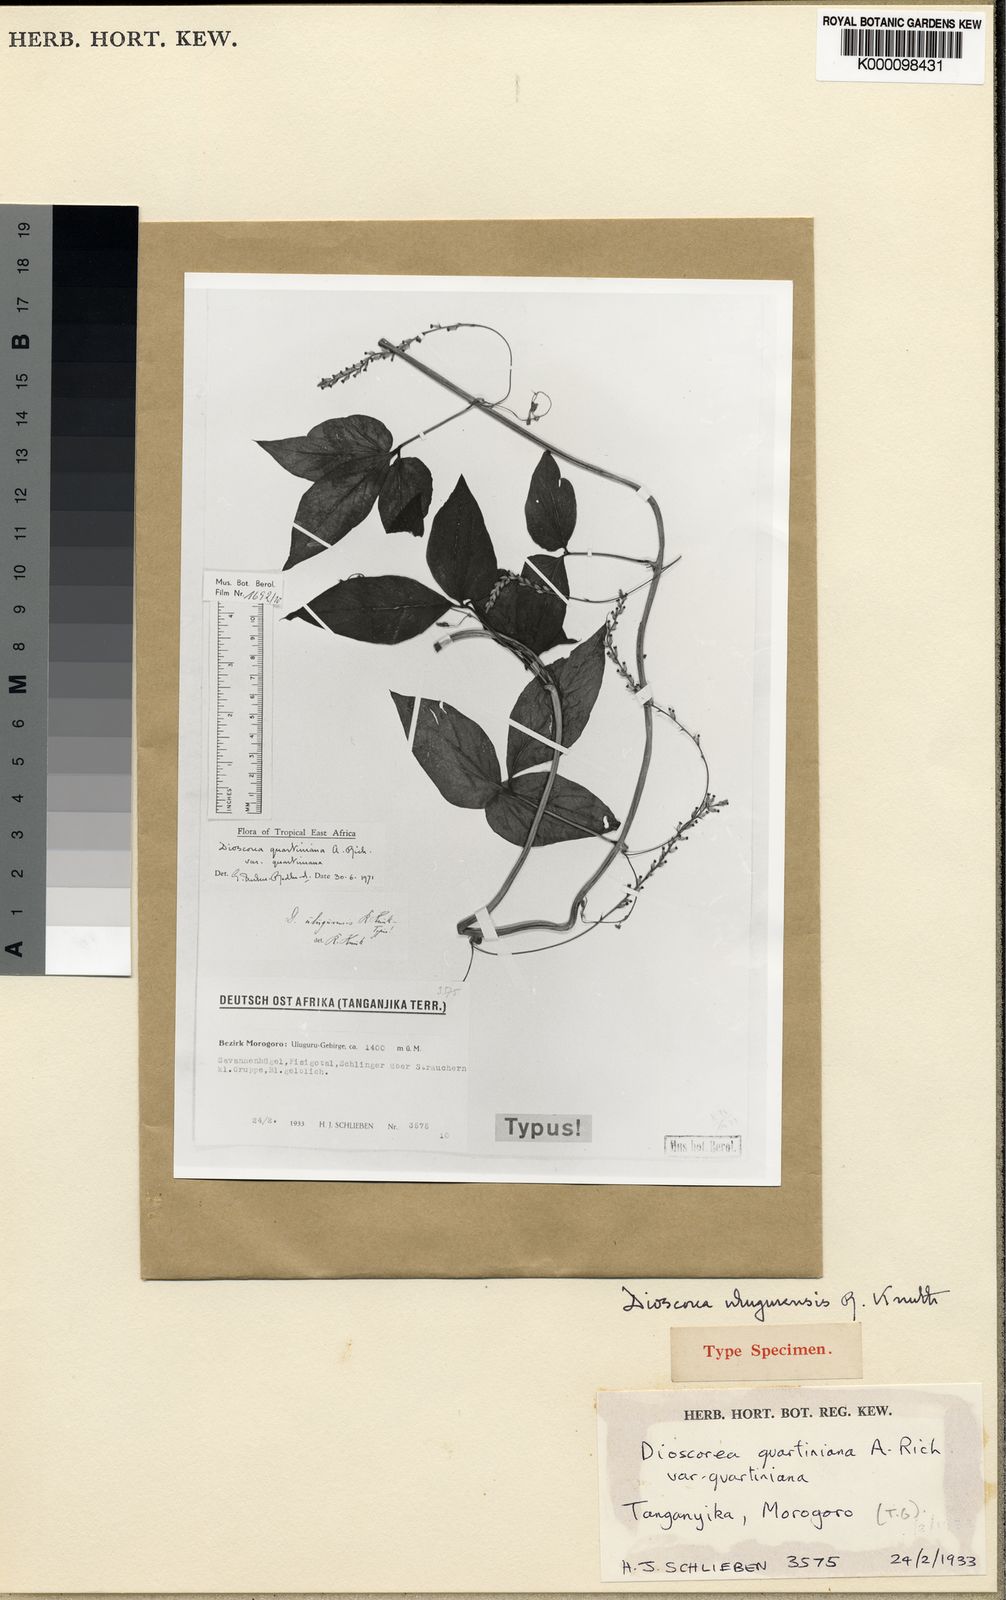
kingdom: Plantae
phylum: Tracheophyta
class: Liliopsida
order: Dioscoreales
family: Dioscoreaceae
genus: Dioscorea
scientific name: Dioscorea quartiniana
